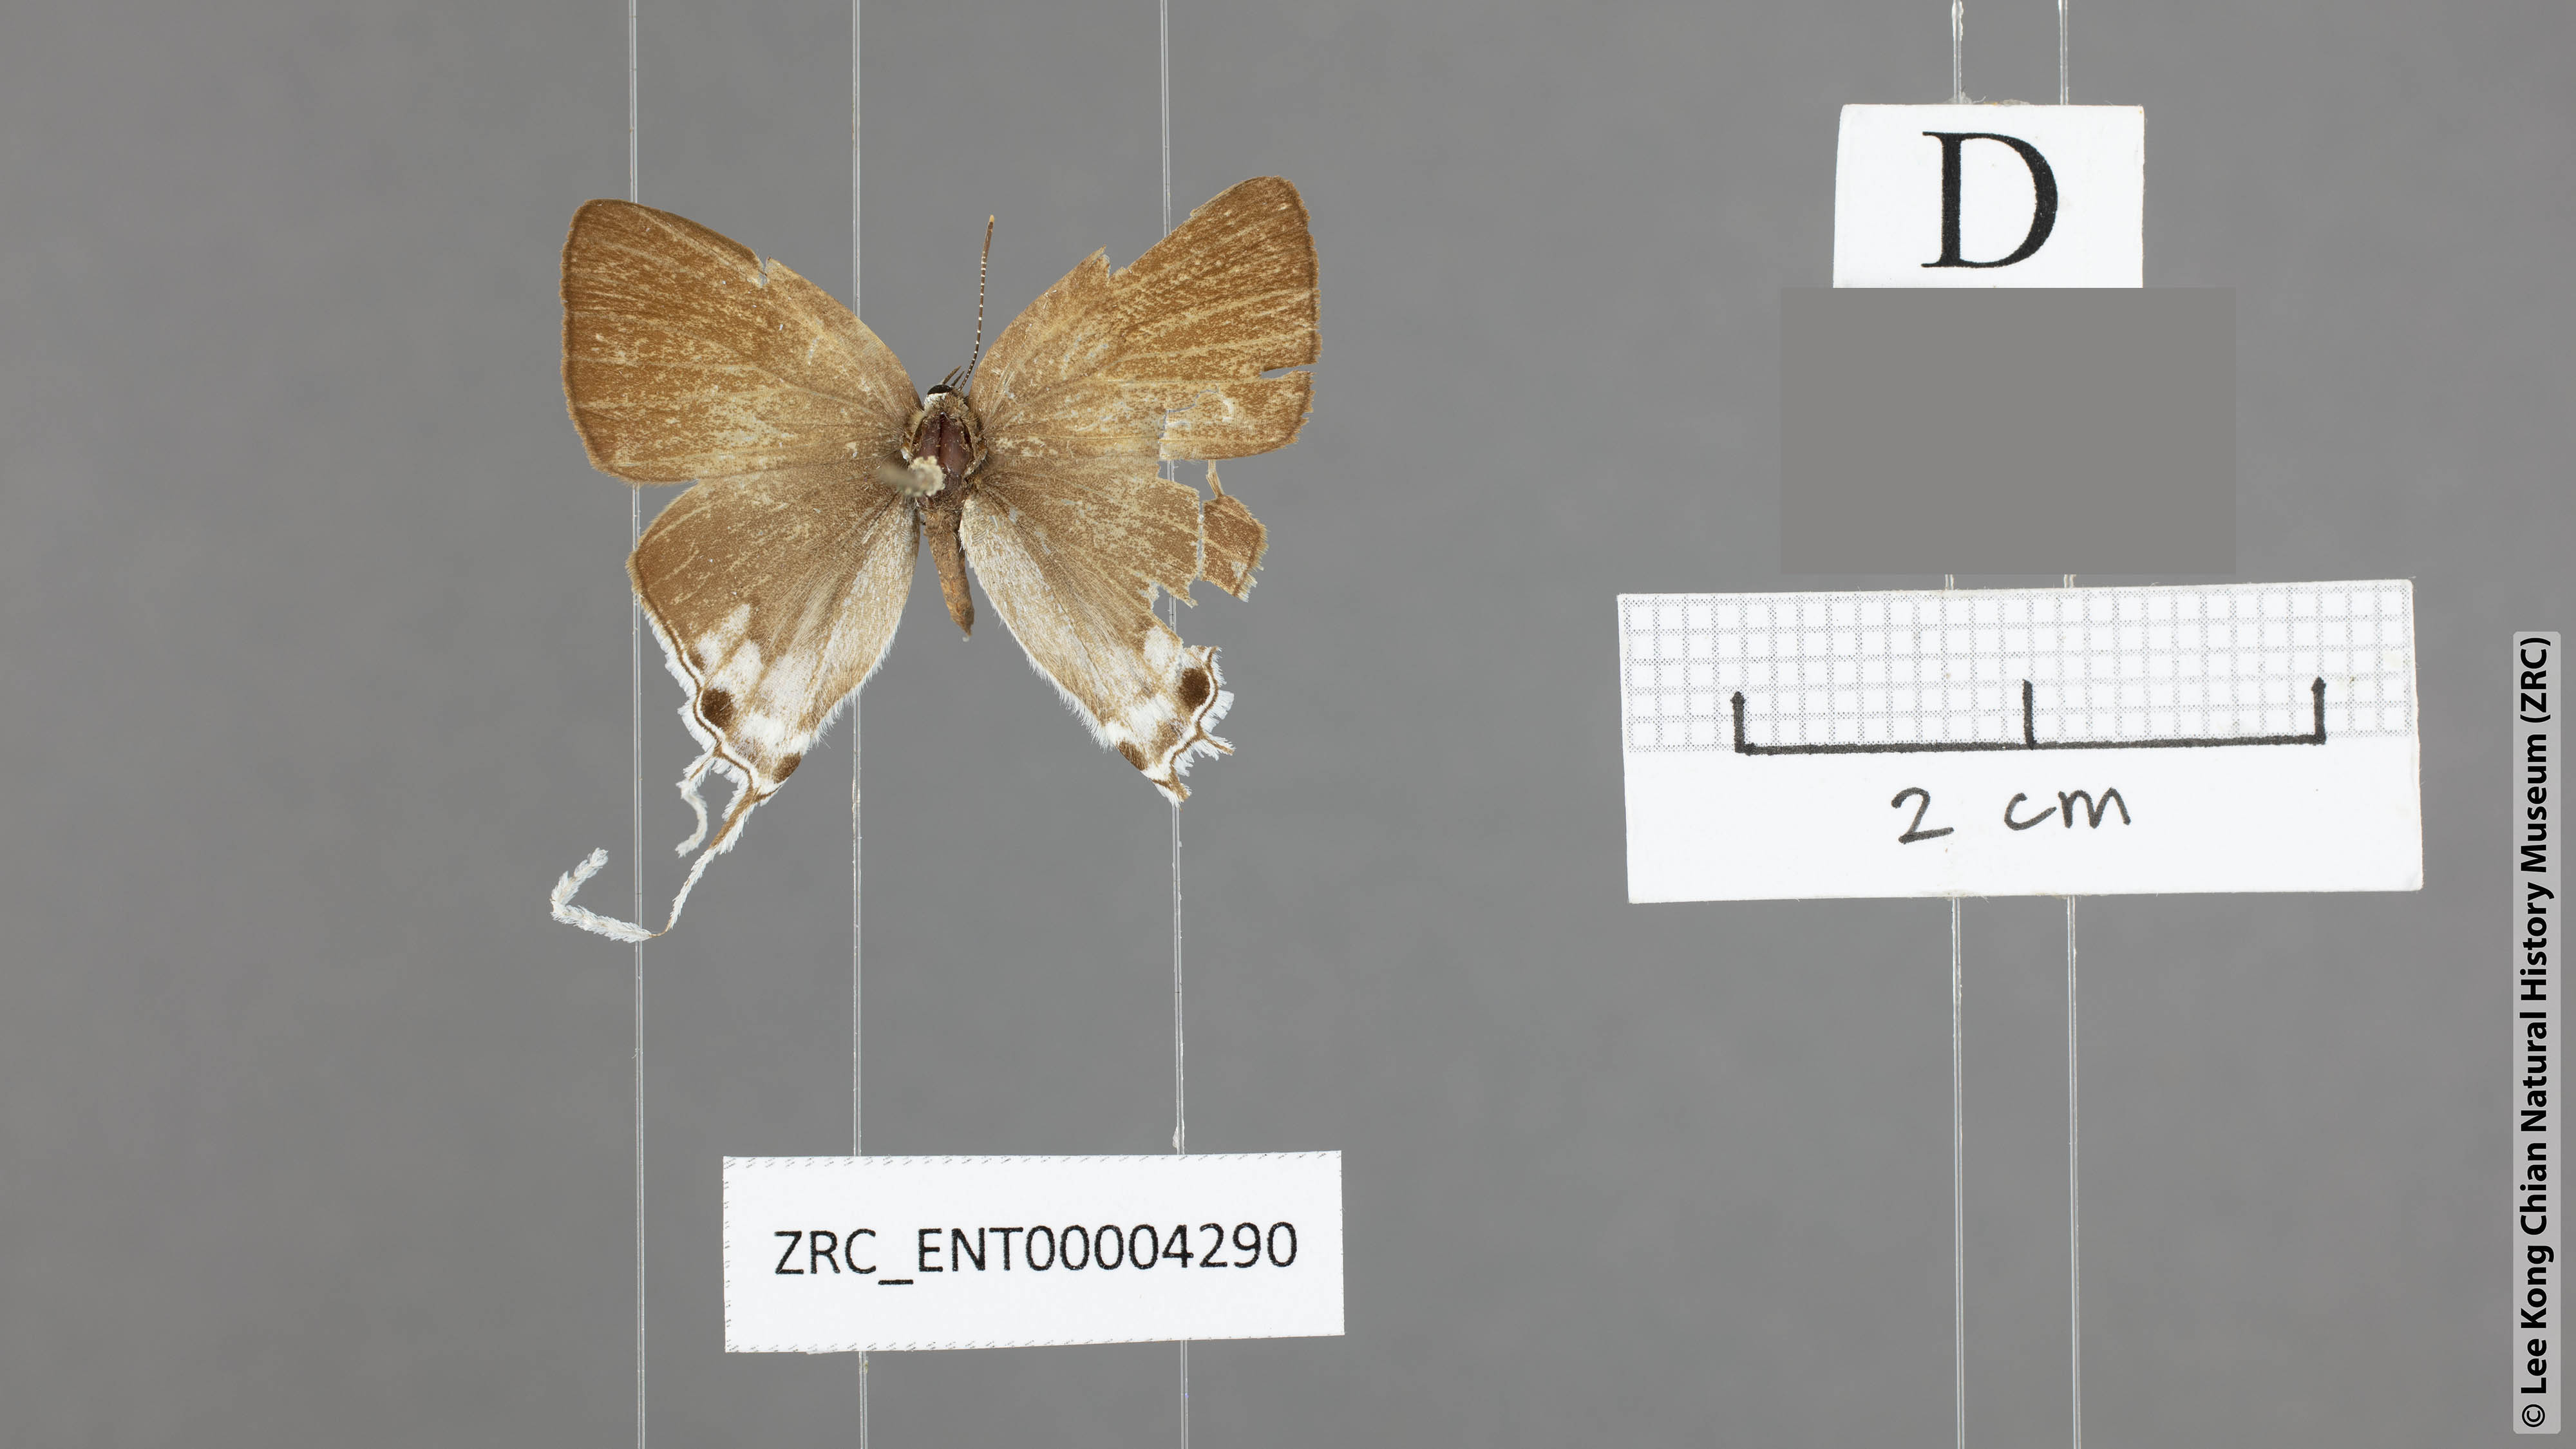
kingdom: Animalia
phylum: Arthropoda
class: Insecta
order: Lepidoptera
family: Lycaenidae
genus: Hypolycaena
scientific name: Hypolycaena merguia
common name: Purple tit
